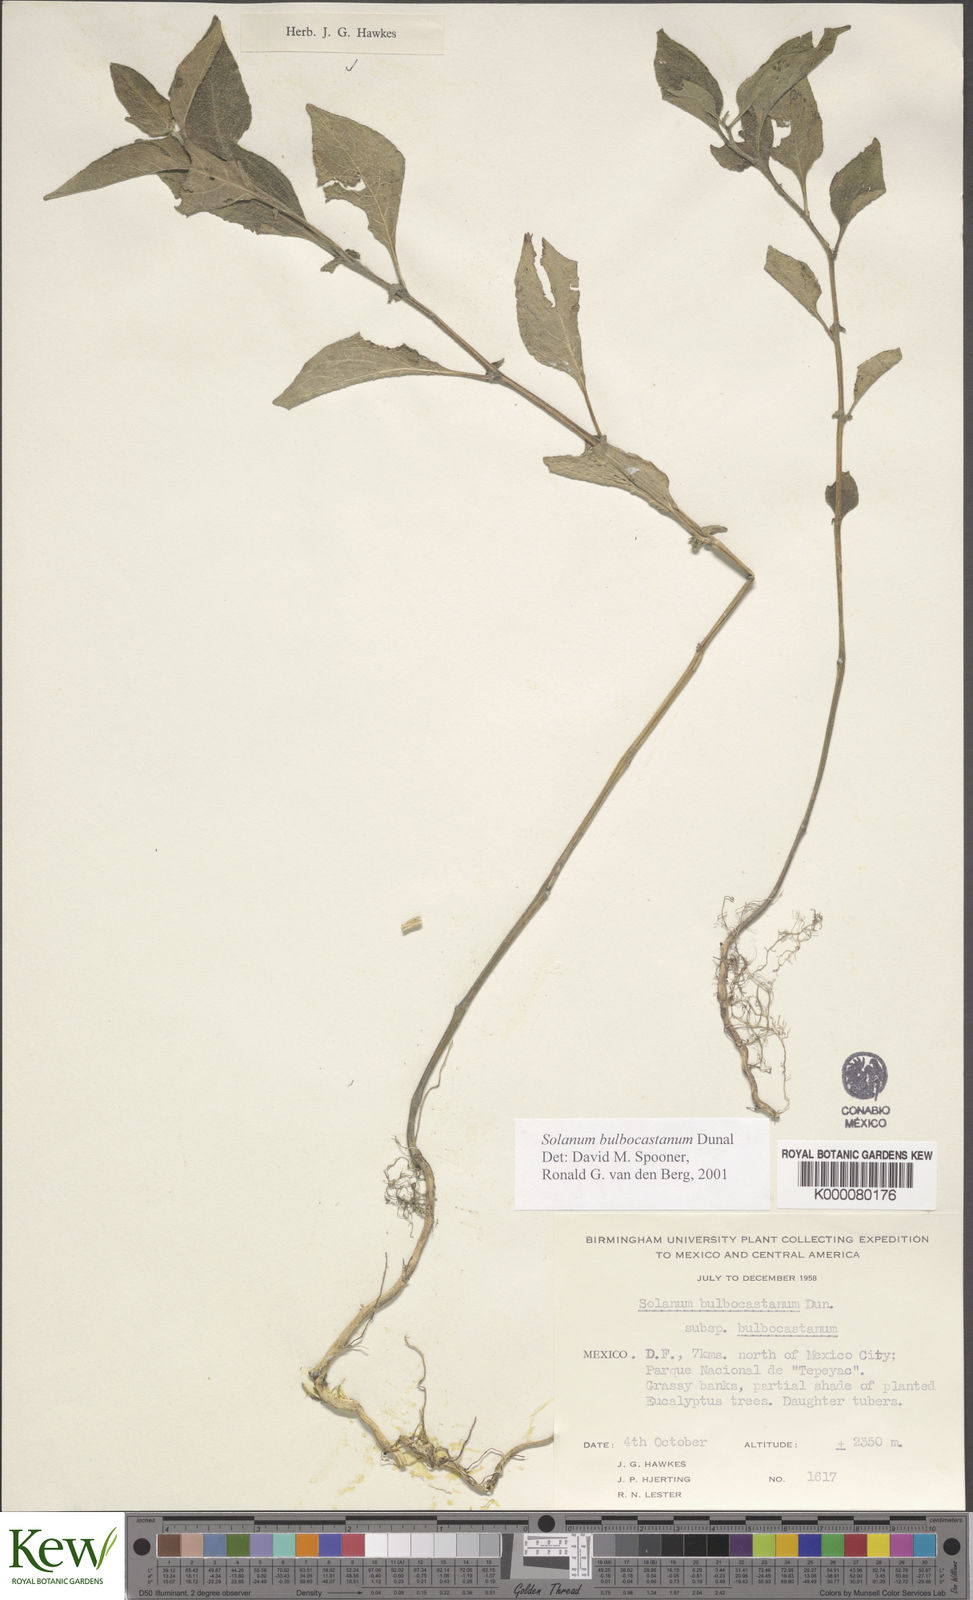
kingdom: Plantae
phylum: Tracheophyta
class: Magnoliopsida
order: Solanales
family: Solanaceae
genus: Solanum
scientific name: Solanum bulbocastanum
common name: Ornamental nightshade
